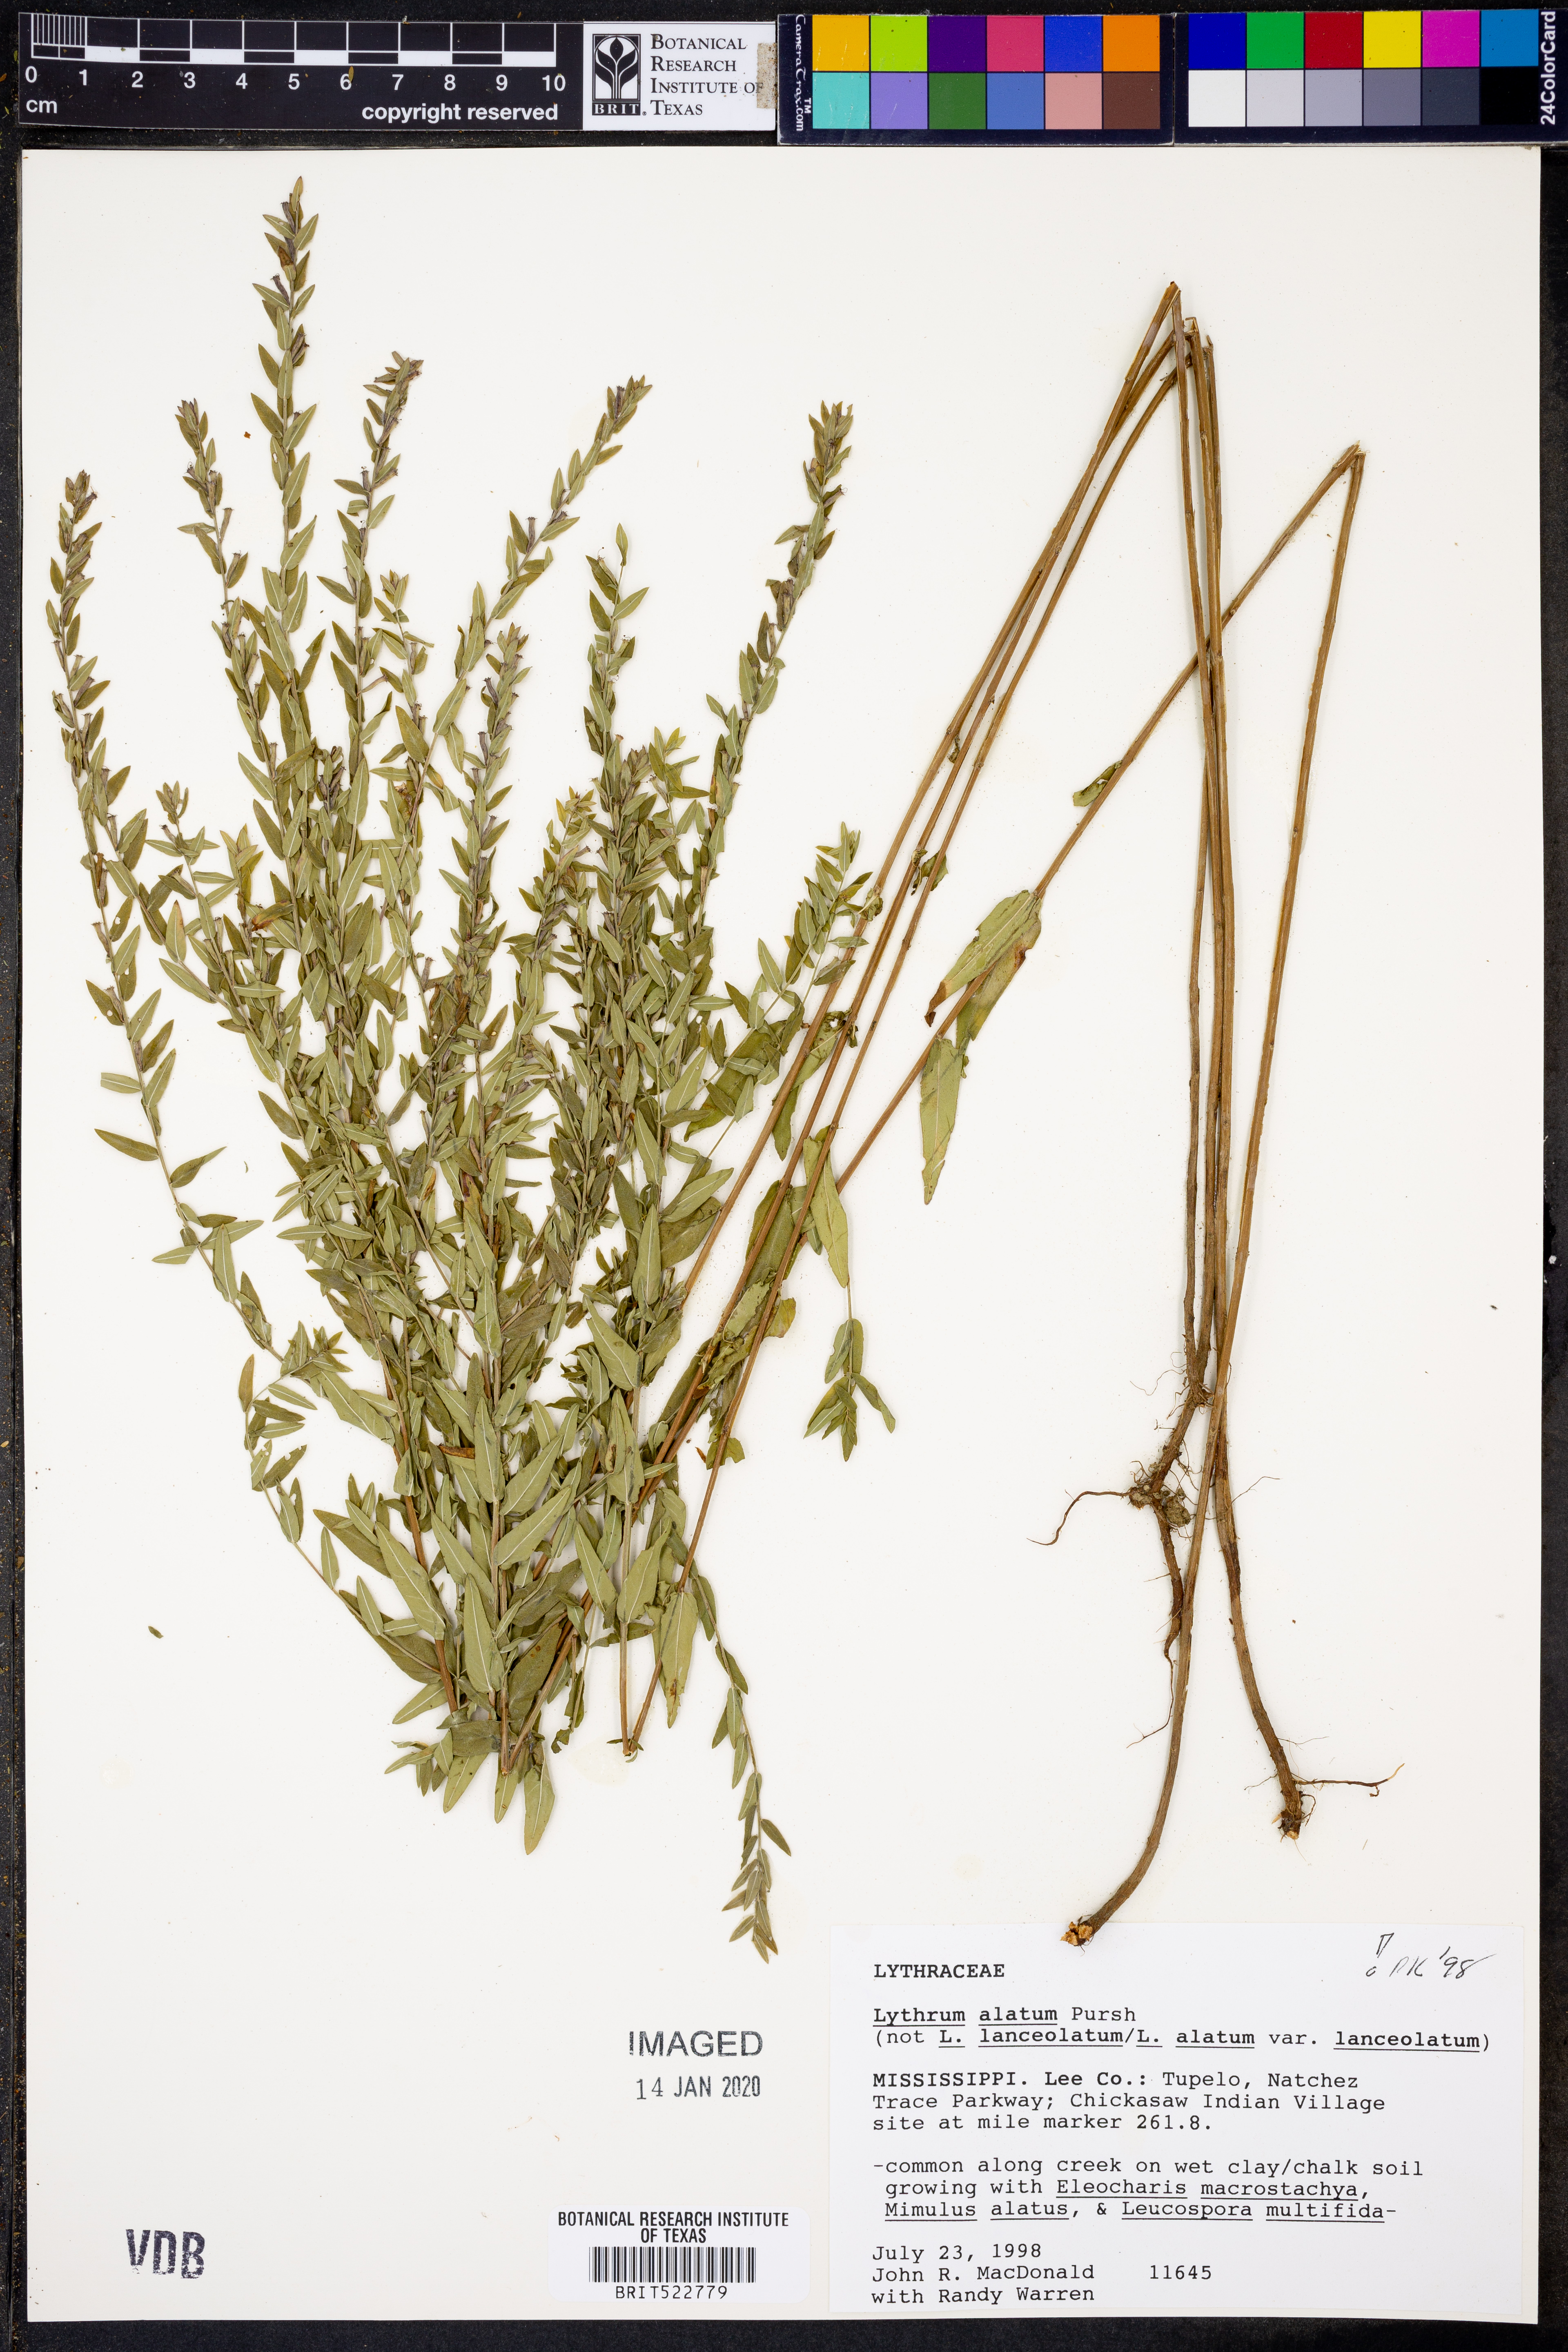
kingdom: Plantae
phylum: Tracheophyta
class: Magnoliopsida
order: Myrtales
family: Lythraceae
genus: Lythrum
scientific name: Lythrum alatum
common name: Winged loosestrife
